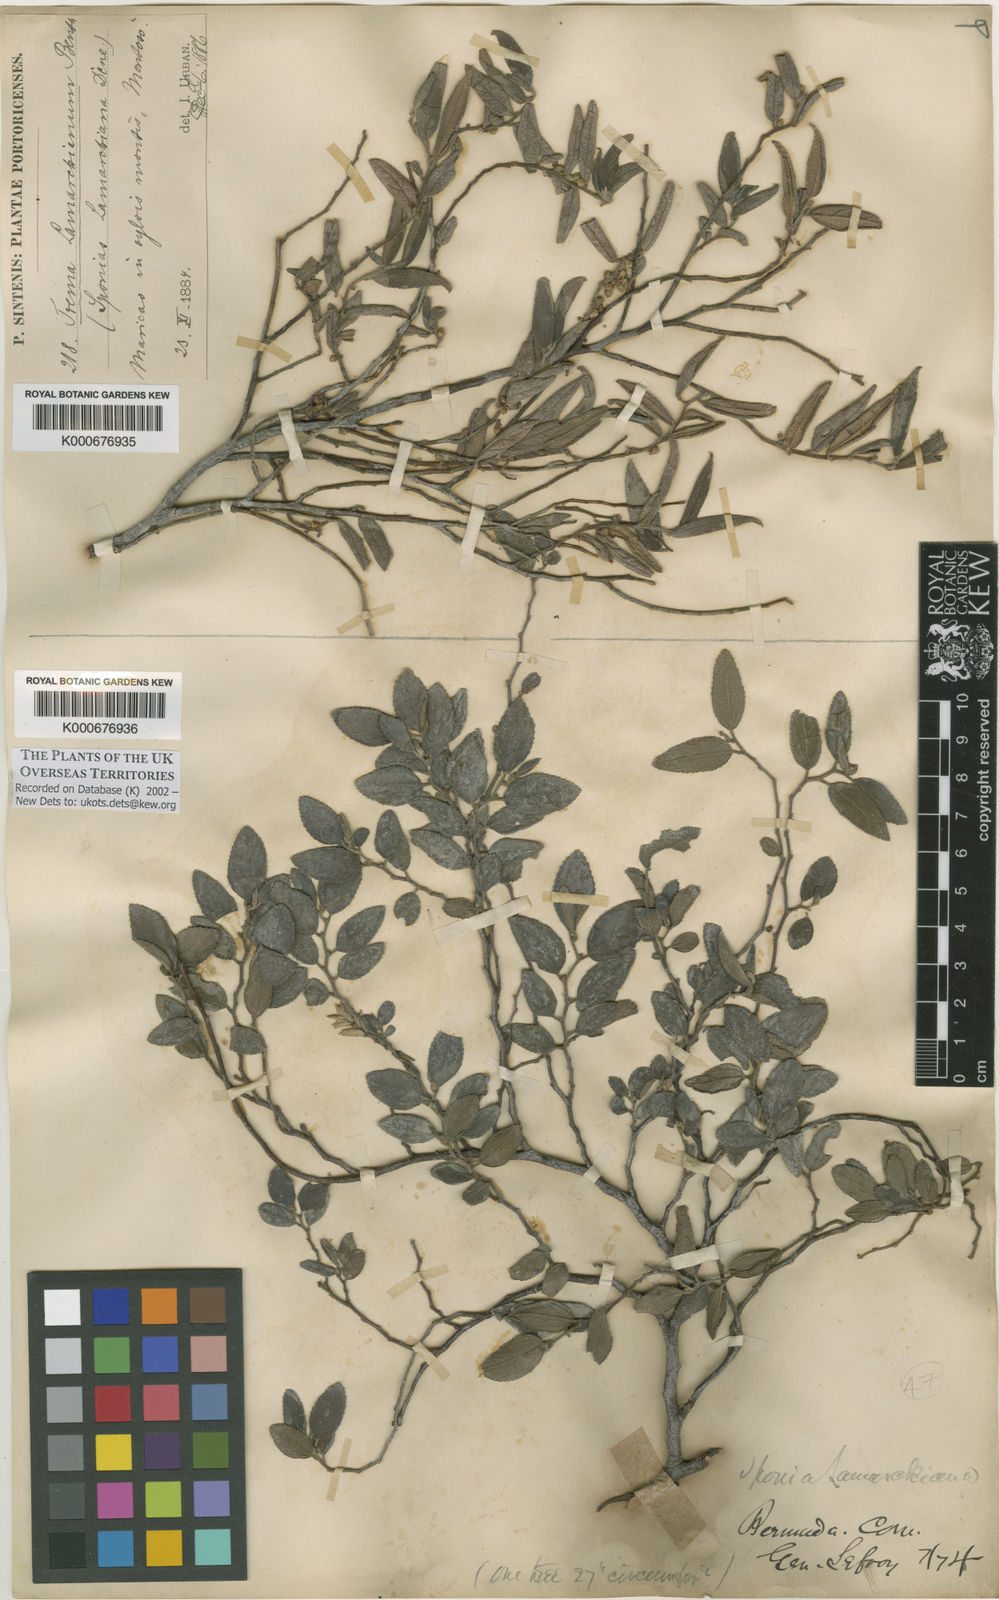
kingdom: Plantae
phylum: Tracheophyta
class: Magnoliopsida
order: Rosales
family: Cannabaceae
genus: Trema
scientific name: Trema lamarckianum
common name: Lamarck's trema
